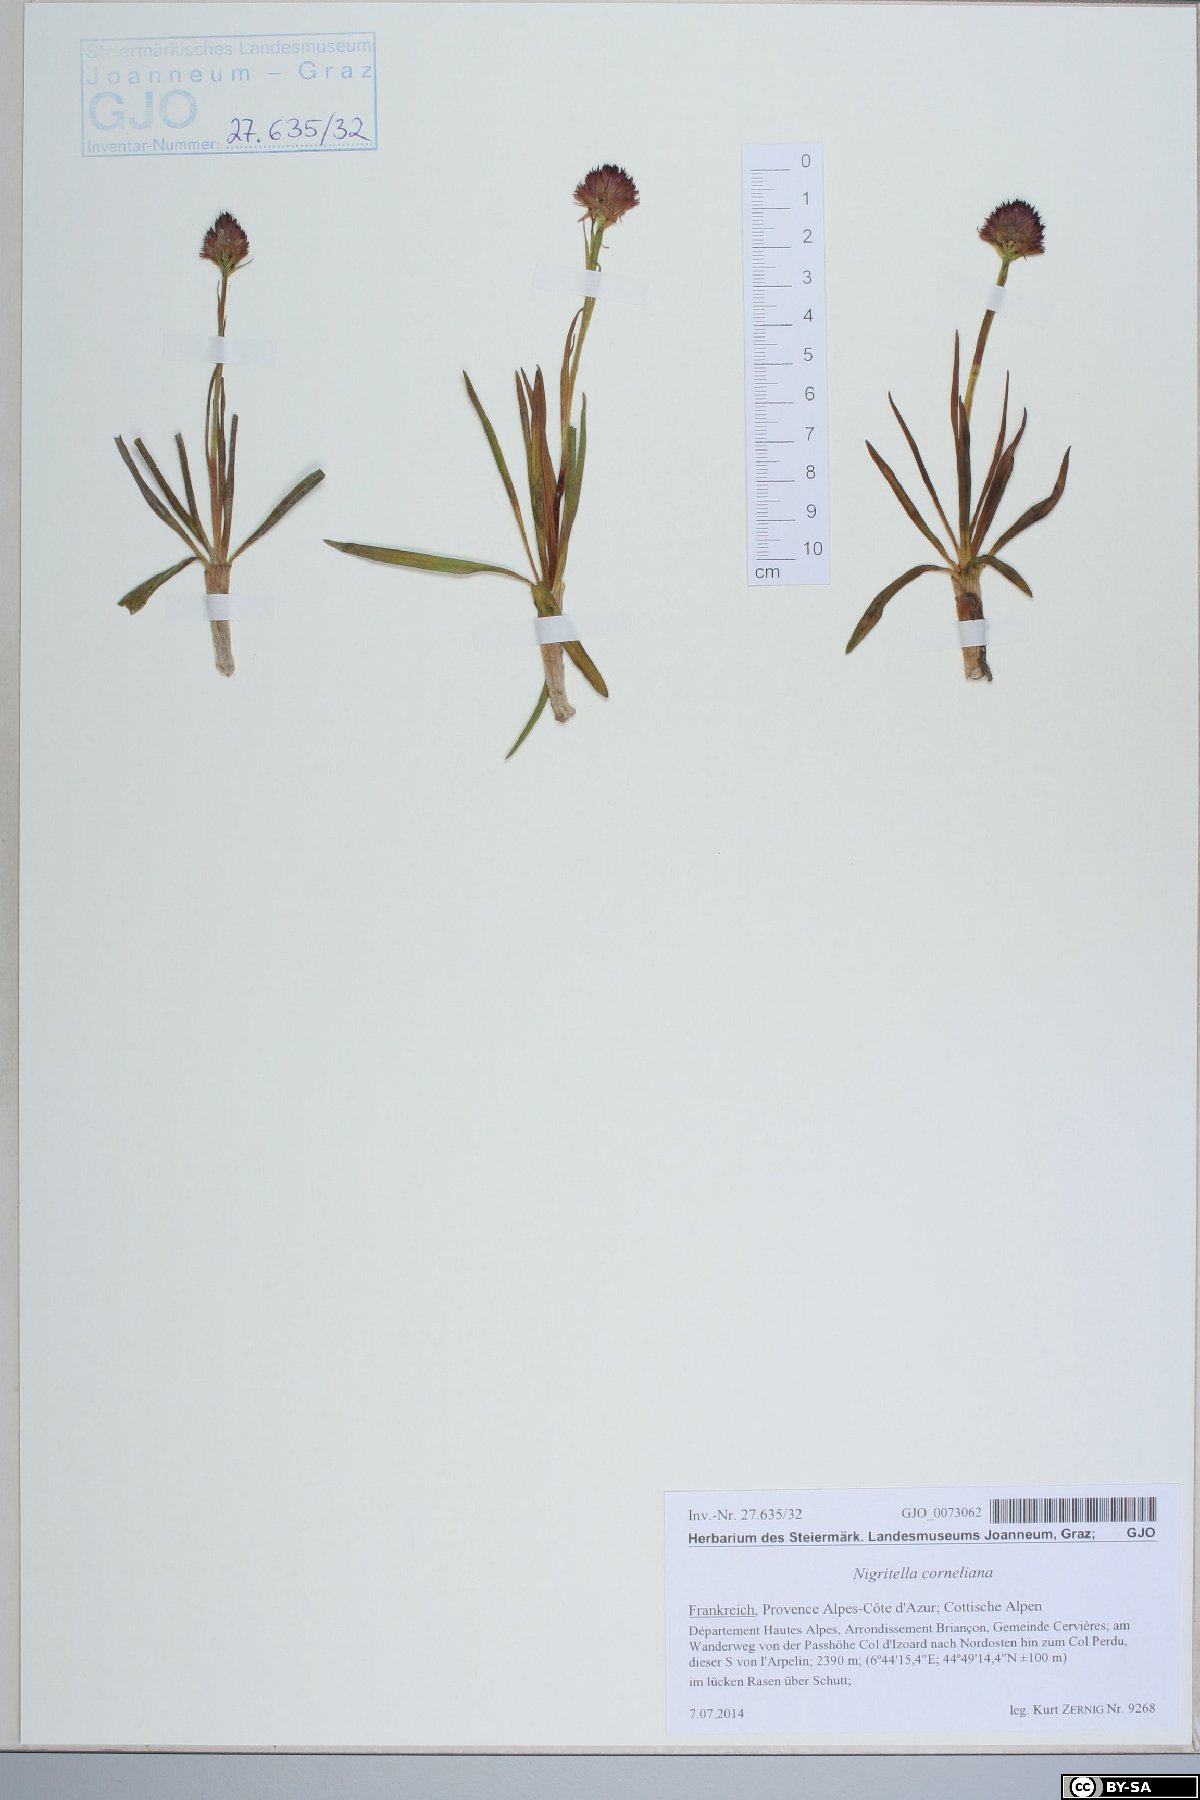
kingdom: Plantae
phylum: Tracheophyta
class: Liliopsida
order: Asparagales
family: Orchidaceae
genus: Gymnadenia
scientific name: Gymnadenia corneliana
